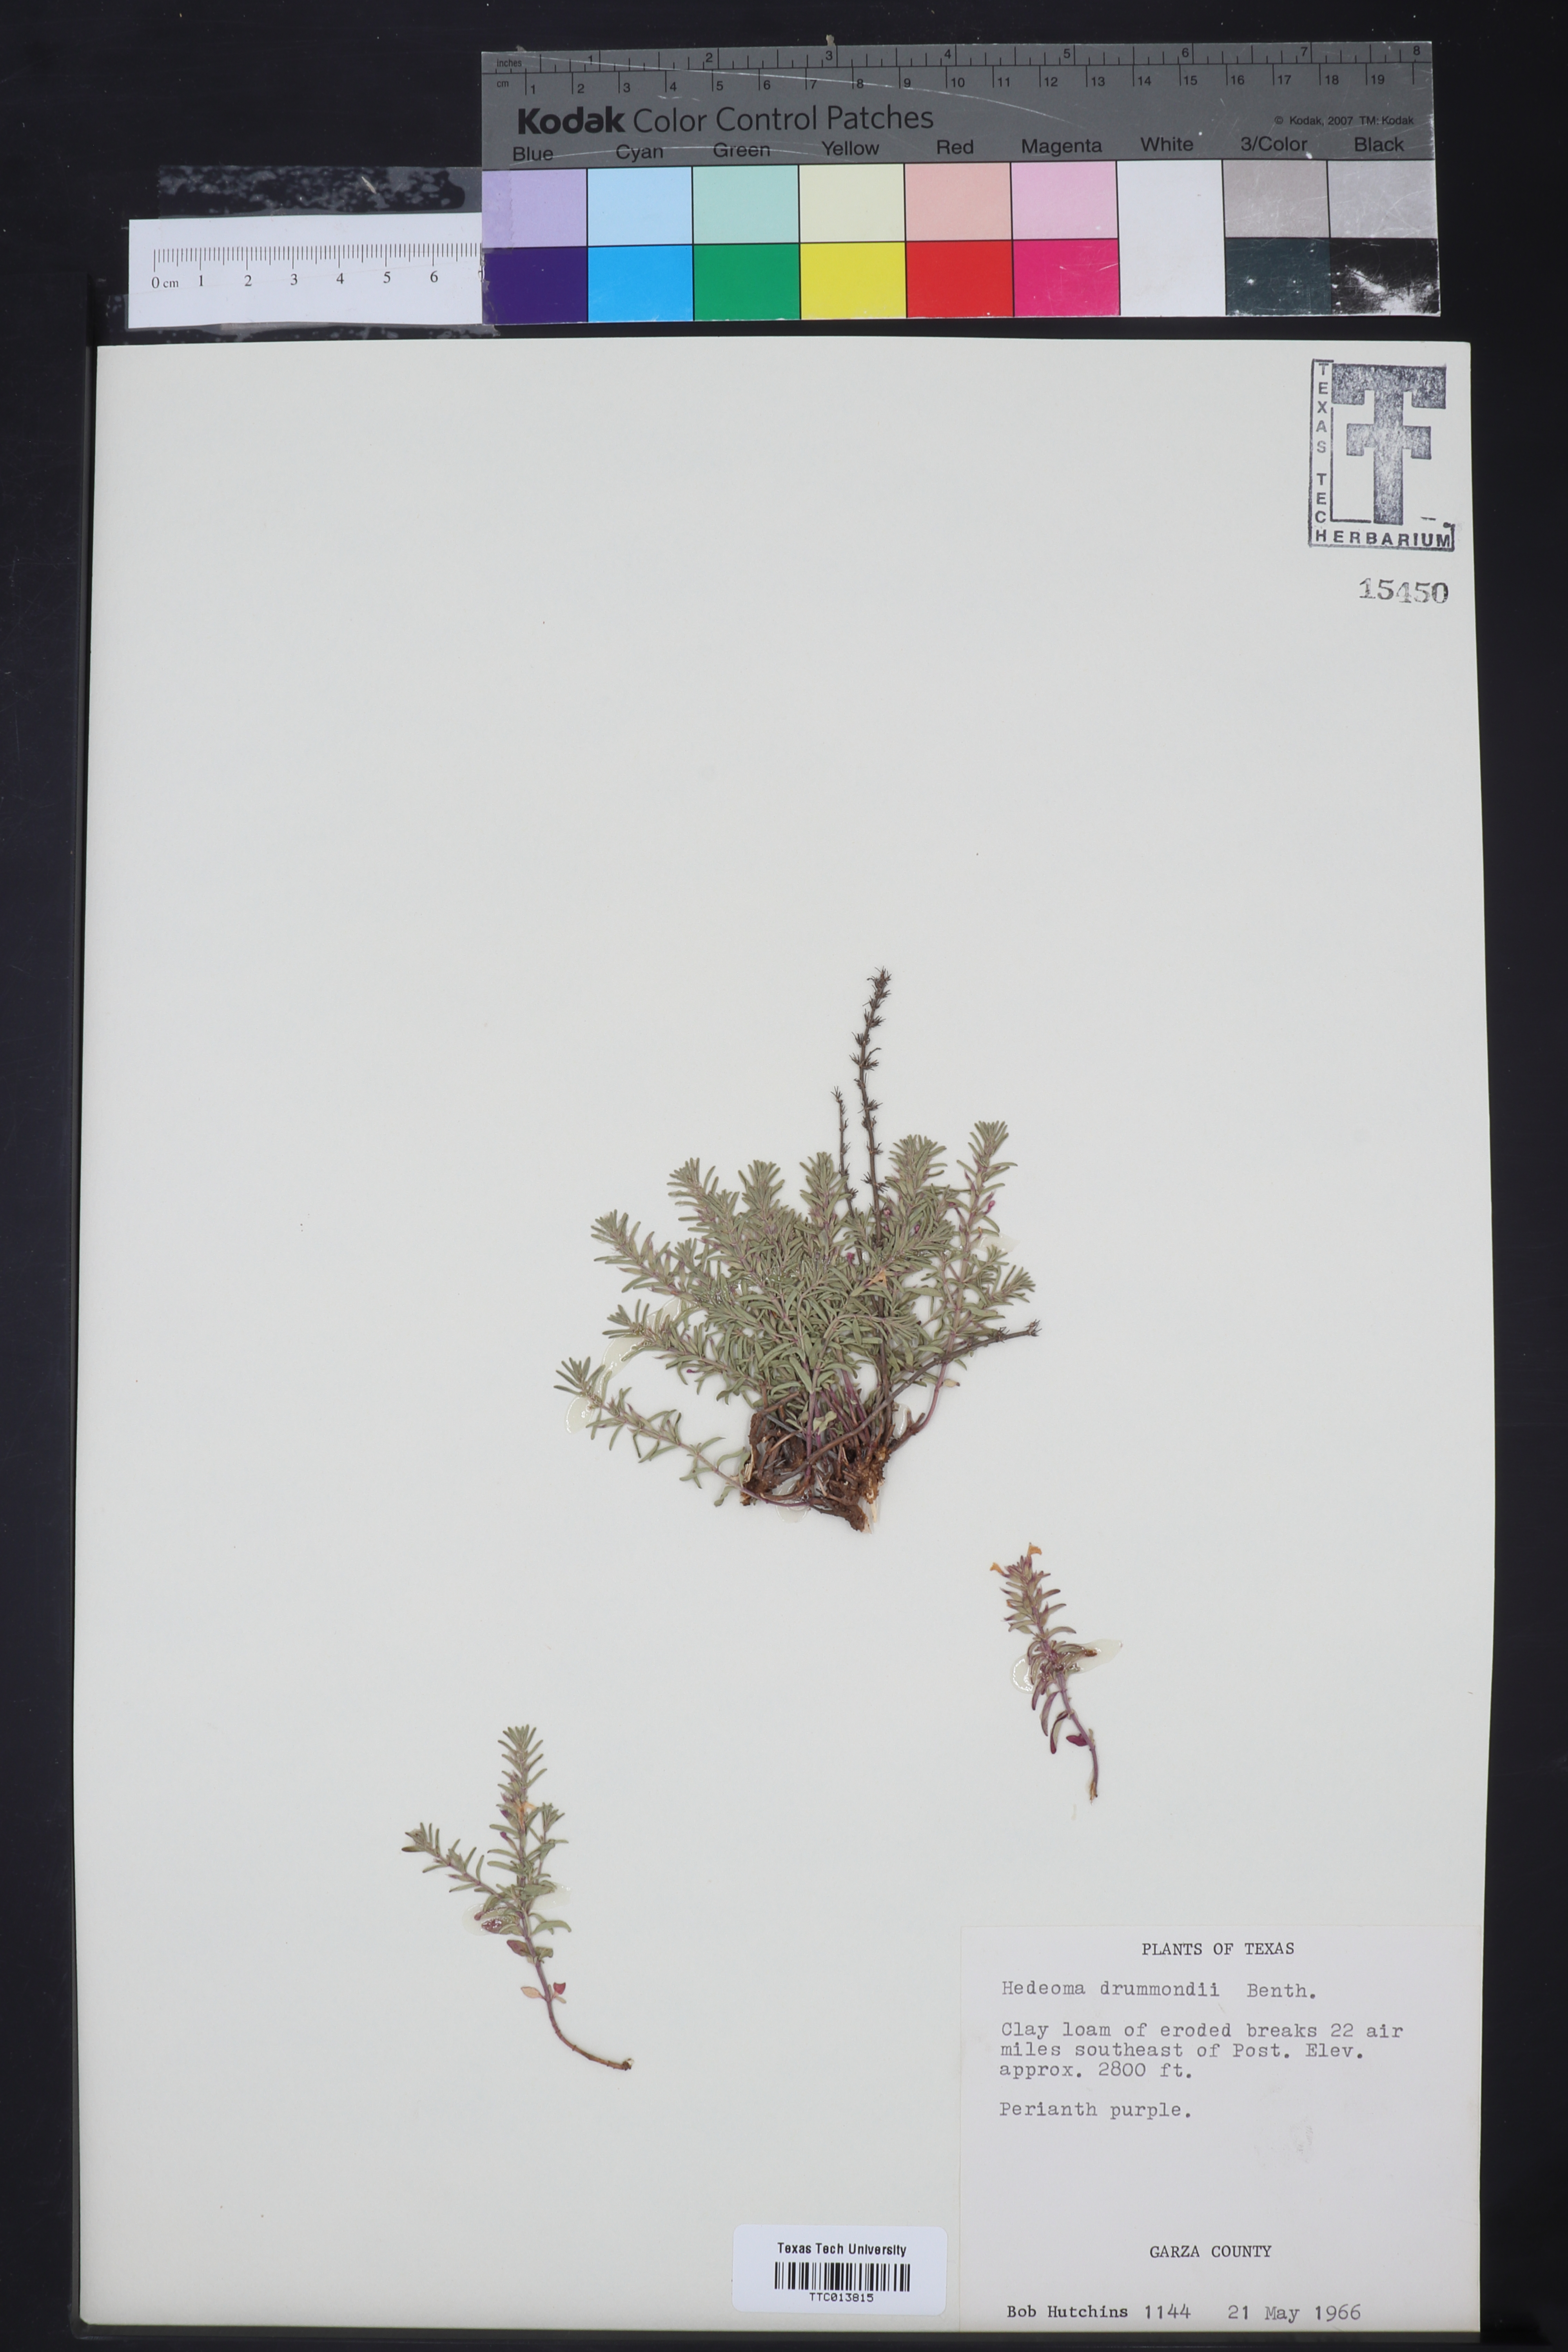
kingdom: Plantae
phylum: Tracheophyta
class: Magnoliopsida
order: Lamiales
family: Lamiaceae
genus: Hedeoma
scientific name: Hedeoma drummondii
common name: New mexico pennyroyal
